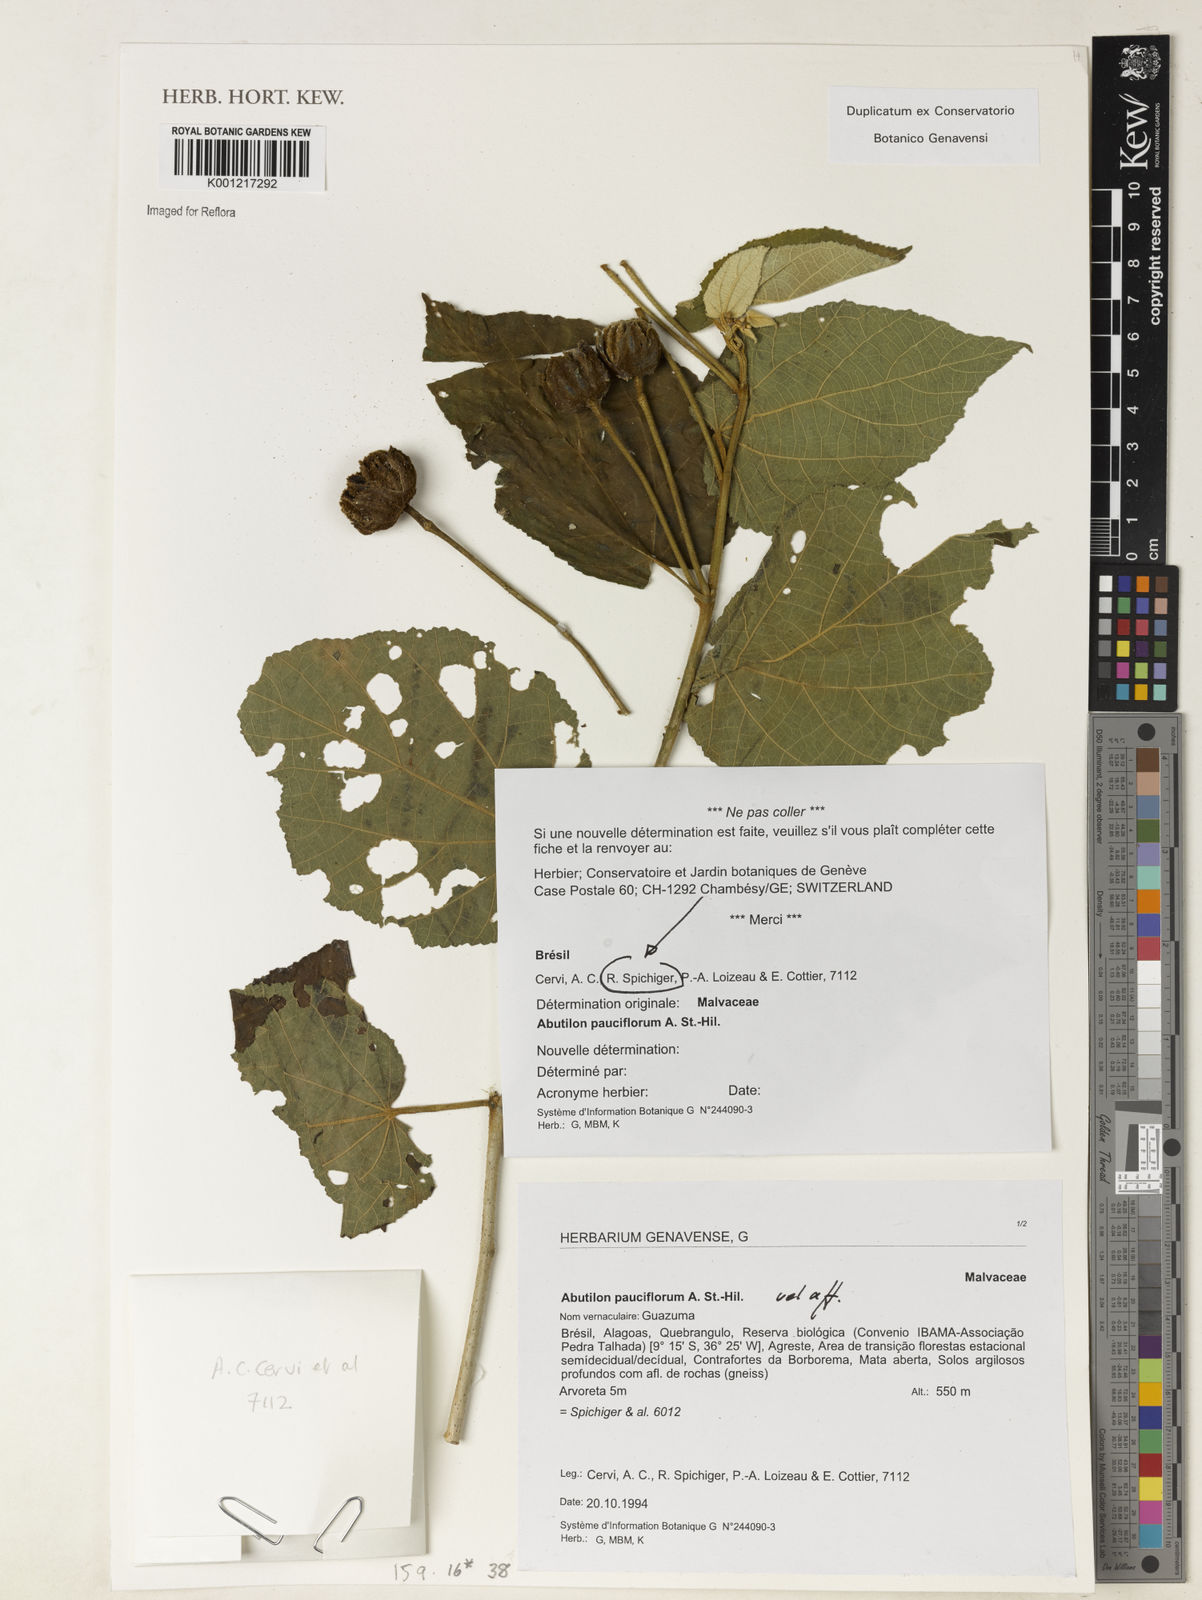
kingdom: Plantae
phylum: Tracheophyta
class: Magnoliopsida
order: Malvales
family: Malvaceae
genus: Callianthe
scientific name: Callianthe pauciflora
